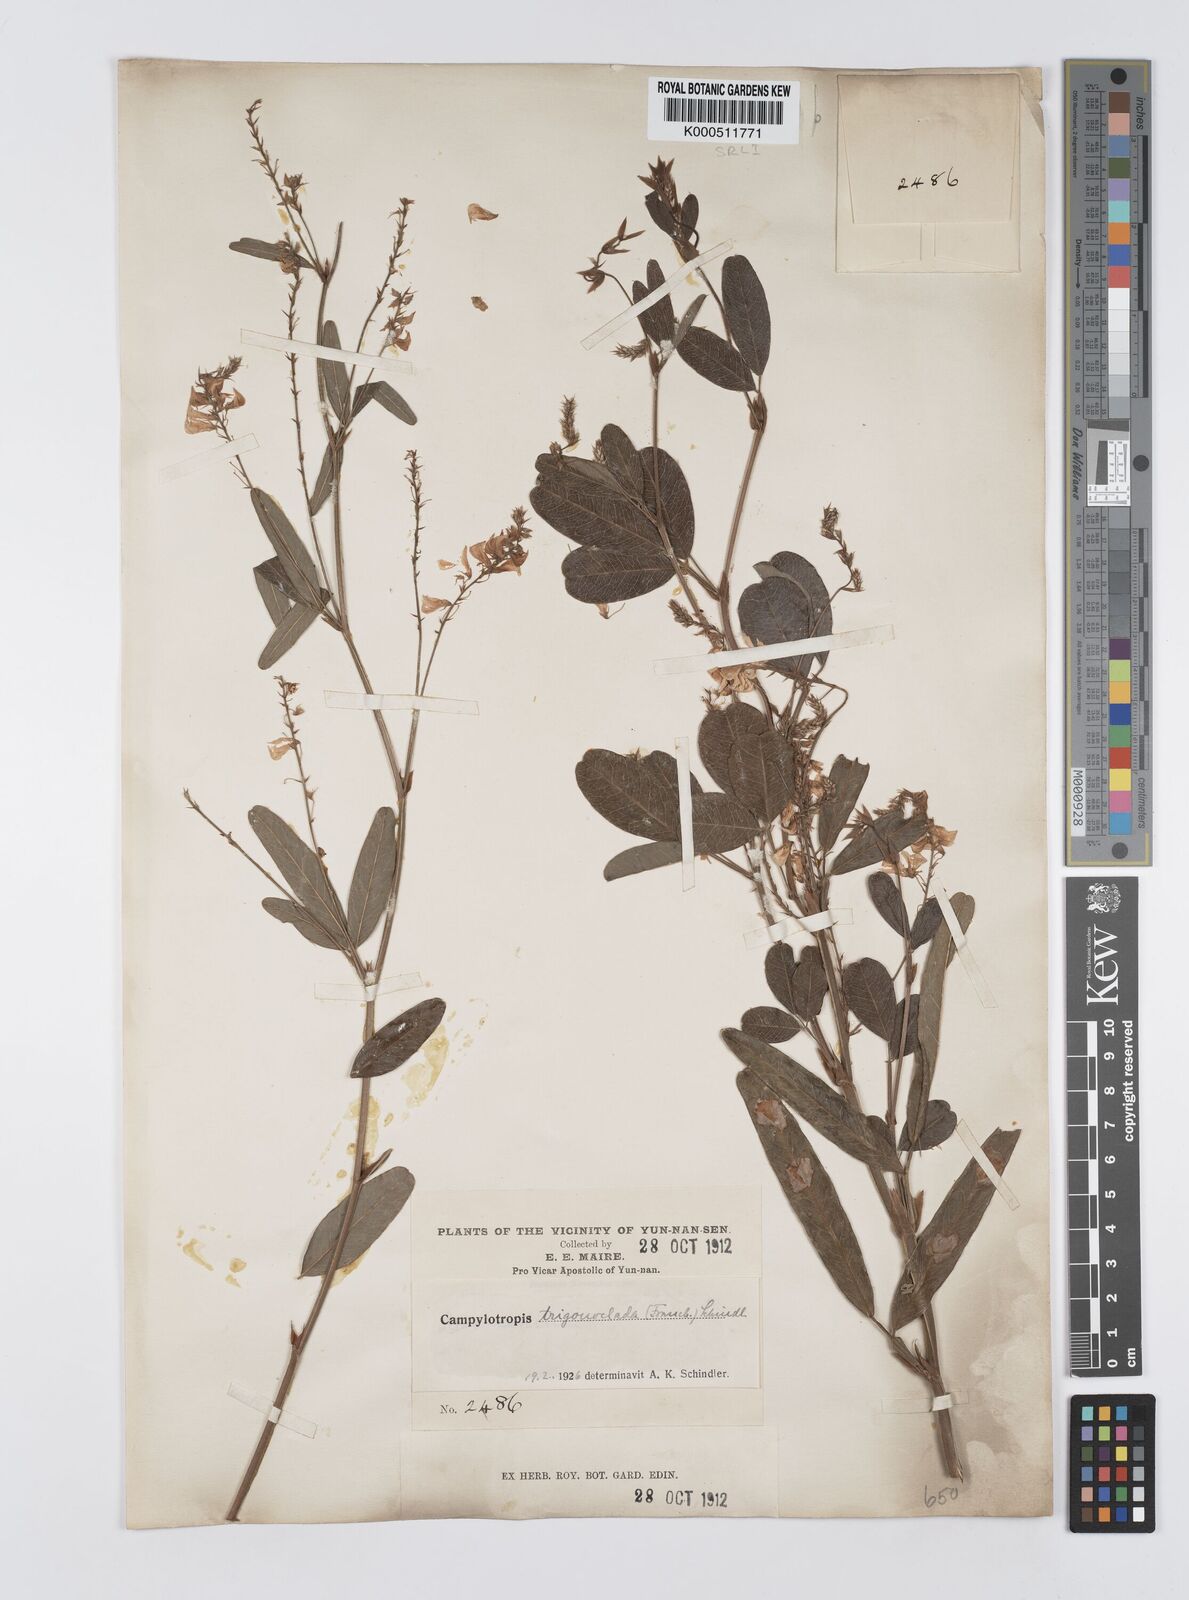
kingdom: Plantae
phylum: Tracheophyta
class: Magnoliopsida
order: Fabales
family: Fabaceae
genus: Campylotropis
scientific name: Campylotropis trigonoclada
